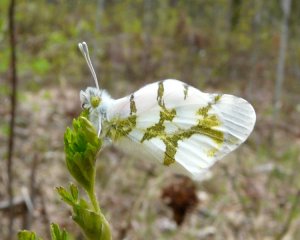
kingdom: Animalia
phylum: Arthropoda
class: Insecta
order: Lepidoptera
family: Pieridae
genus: Euchloe
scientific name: Euchloe olympia
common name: Olympia Marble
